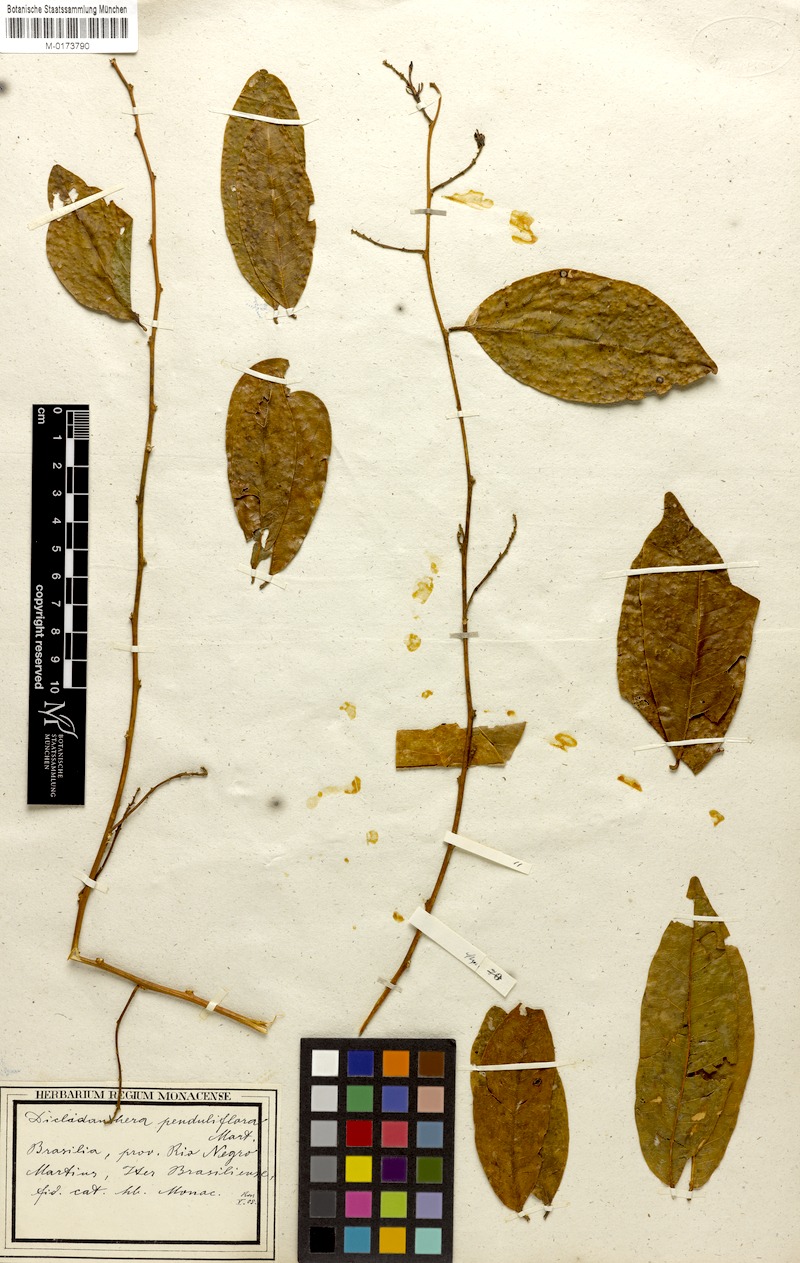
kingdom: Plantae
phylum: Tracheophyta
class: Magnoliopsida
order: Fabales
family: Polygalaceae
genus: Diclidanthera
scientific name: Diclidanthera penduliflora
